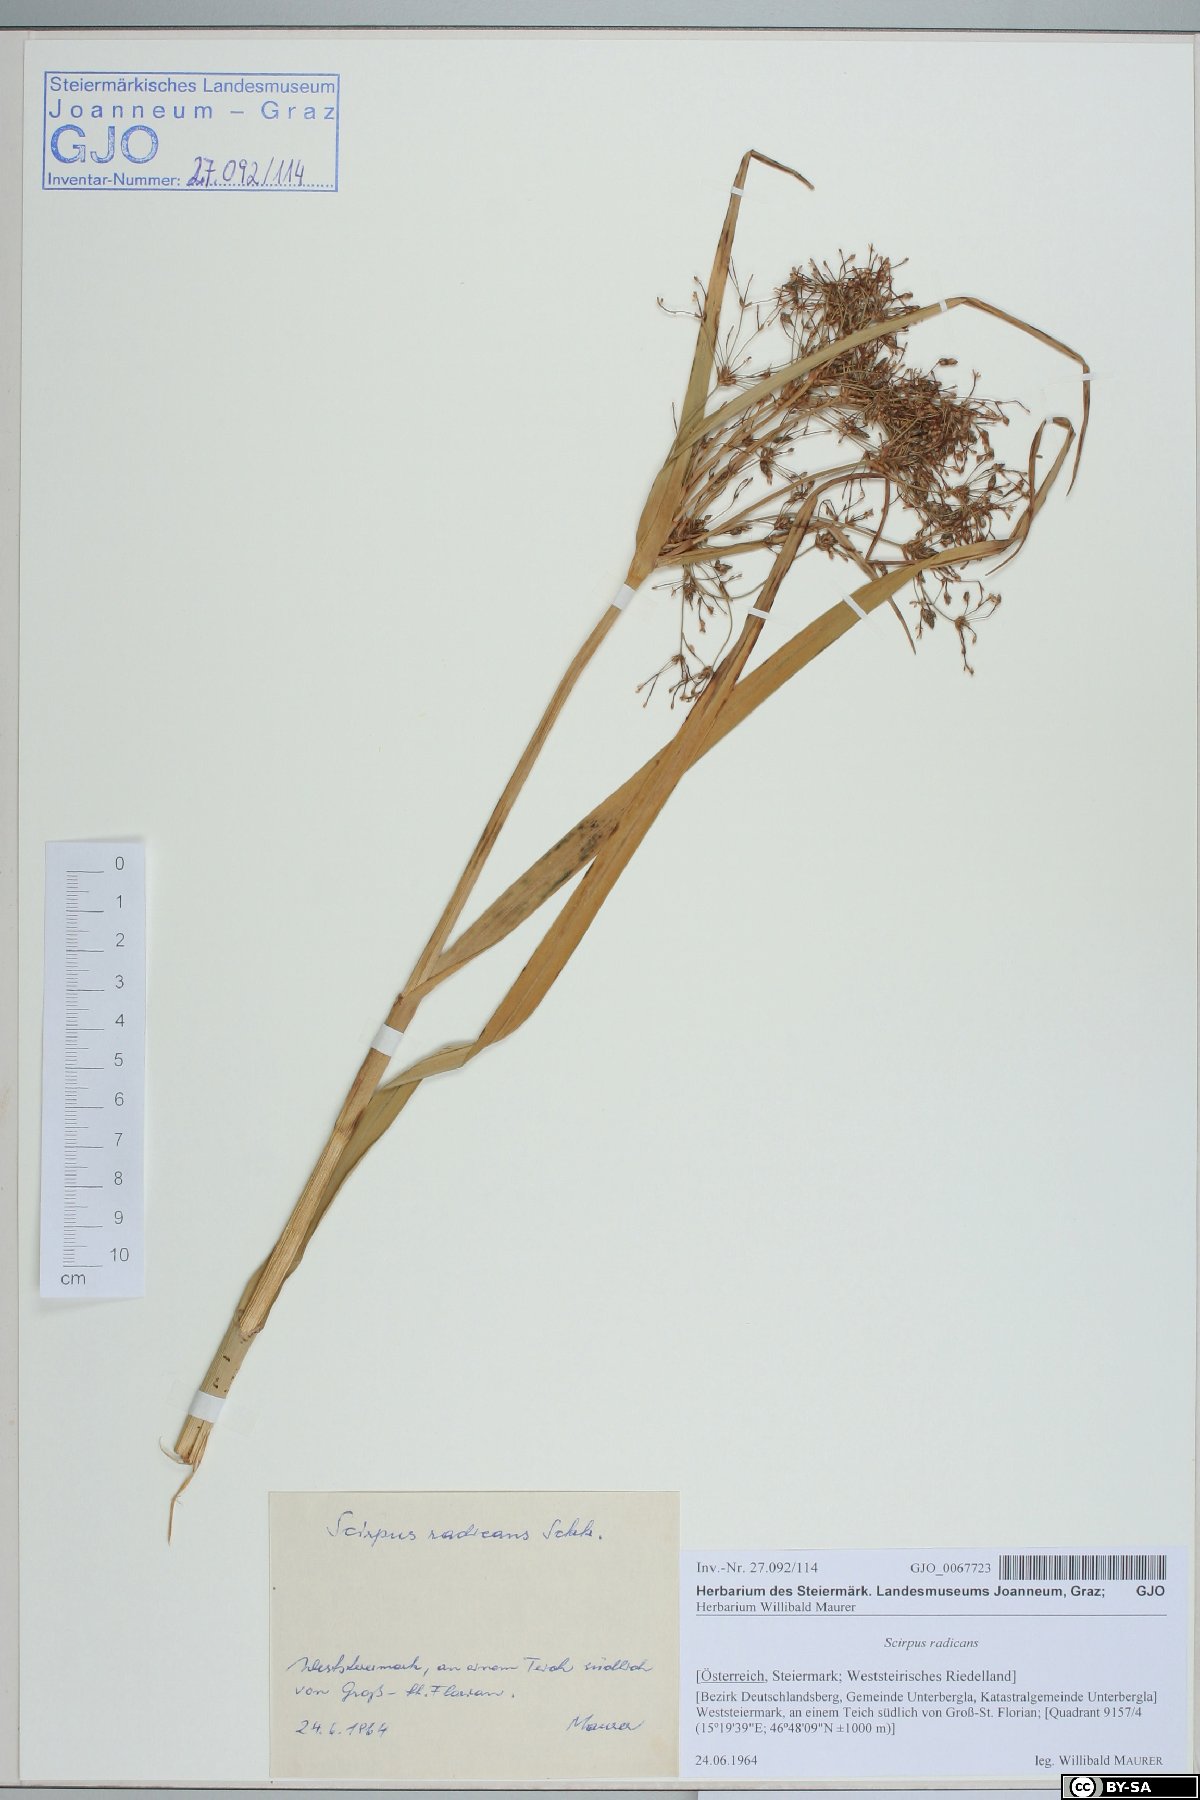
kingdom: Plantae
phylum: Tracheophyta
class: Liliopsida
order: Poales
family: Cyperaceae
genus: Scirpus
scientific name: Scirpus radicans
